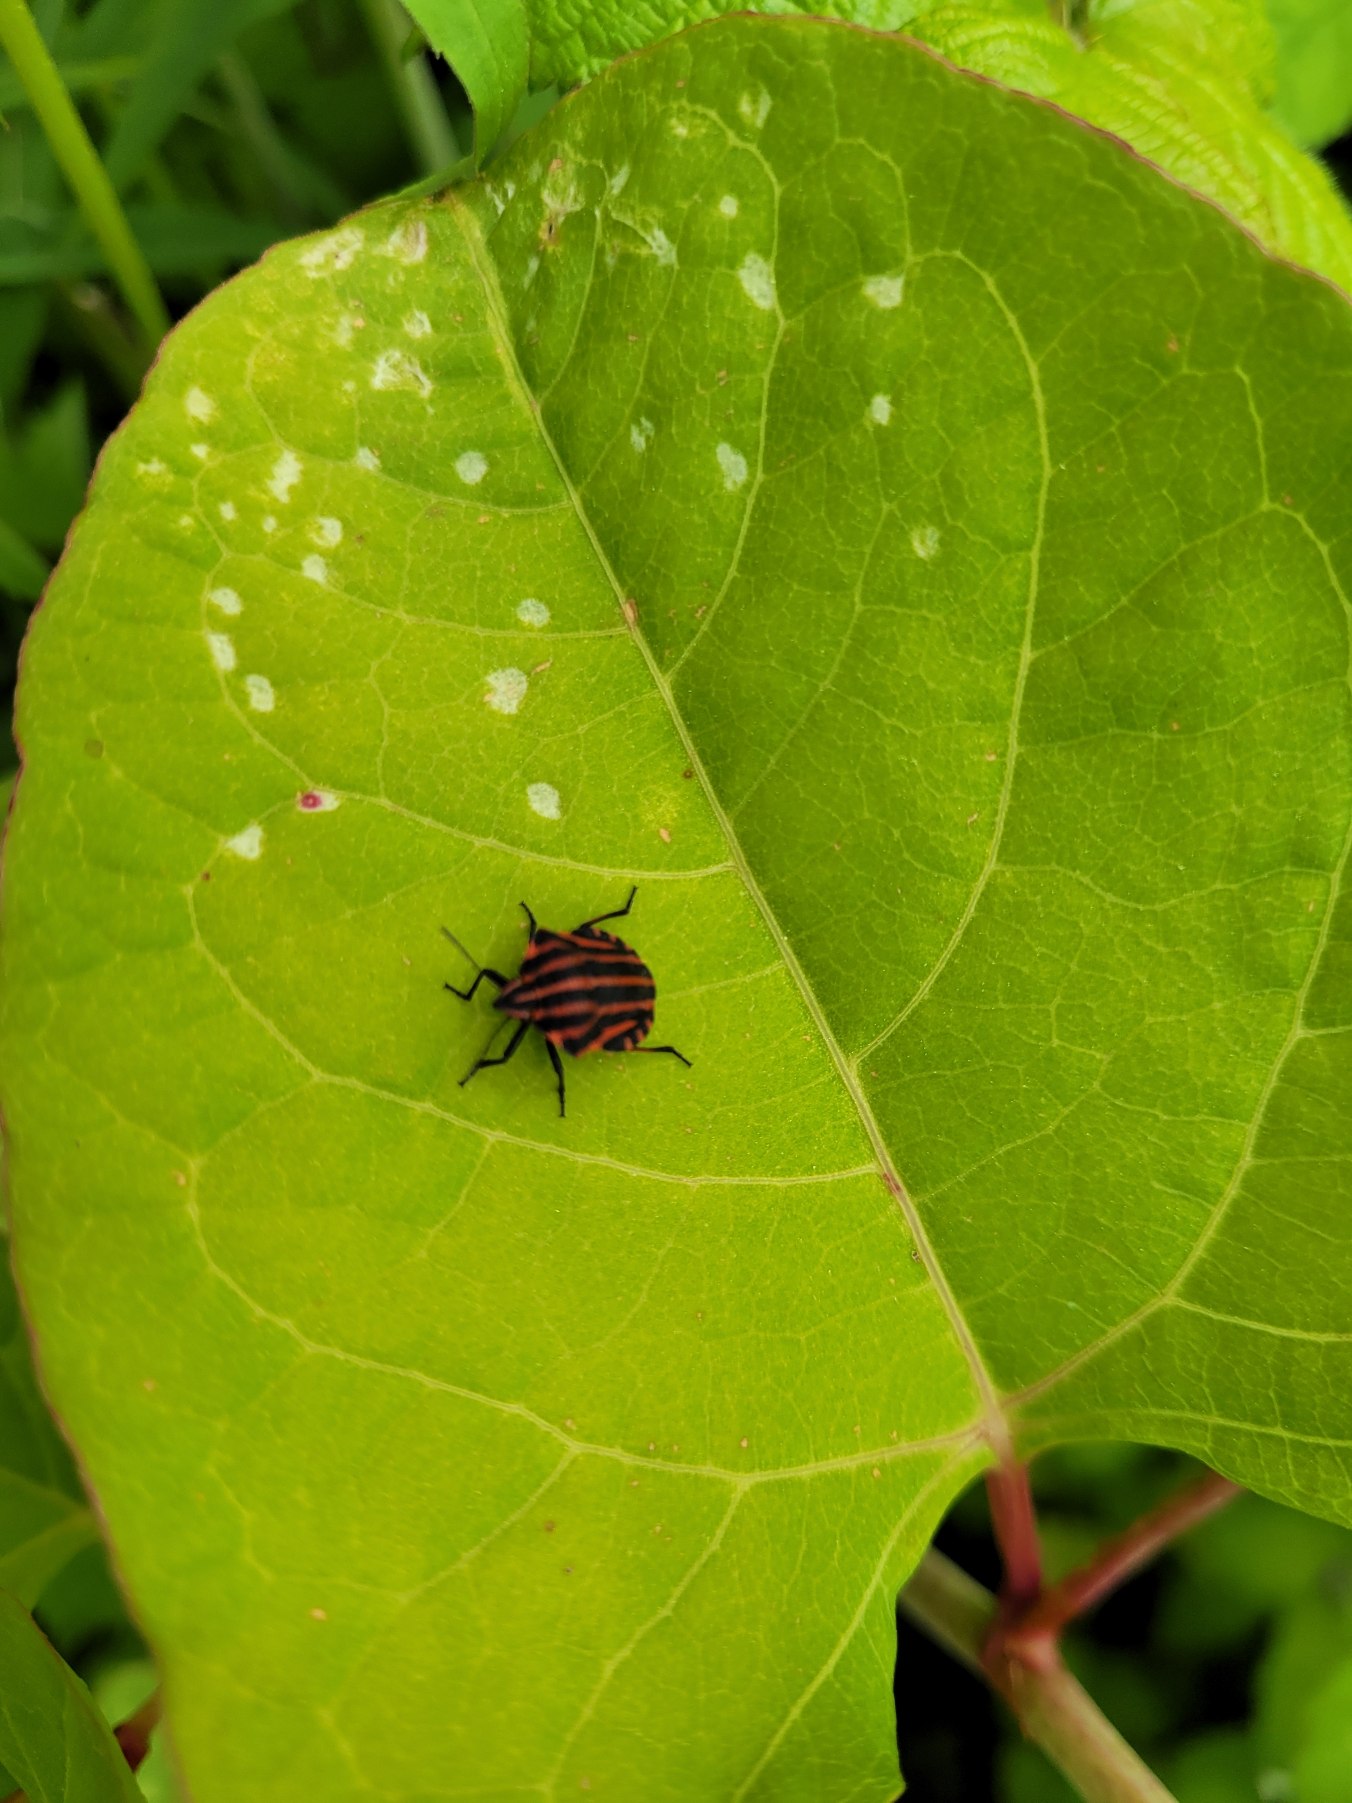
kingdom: Animalia
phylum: Arthropoda
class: Insecta
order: Hemiptera
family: Pentatomidae
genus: Graphosoma
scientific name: Graphosoma italicum
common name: Stribetæge
